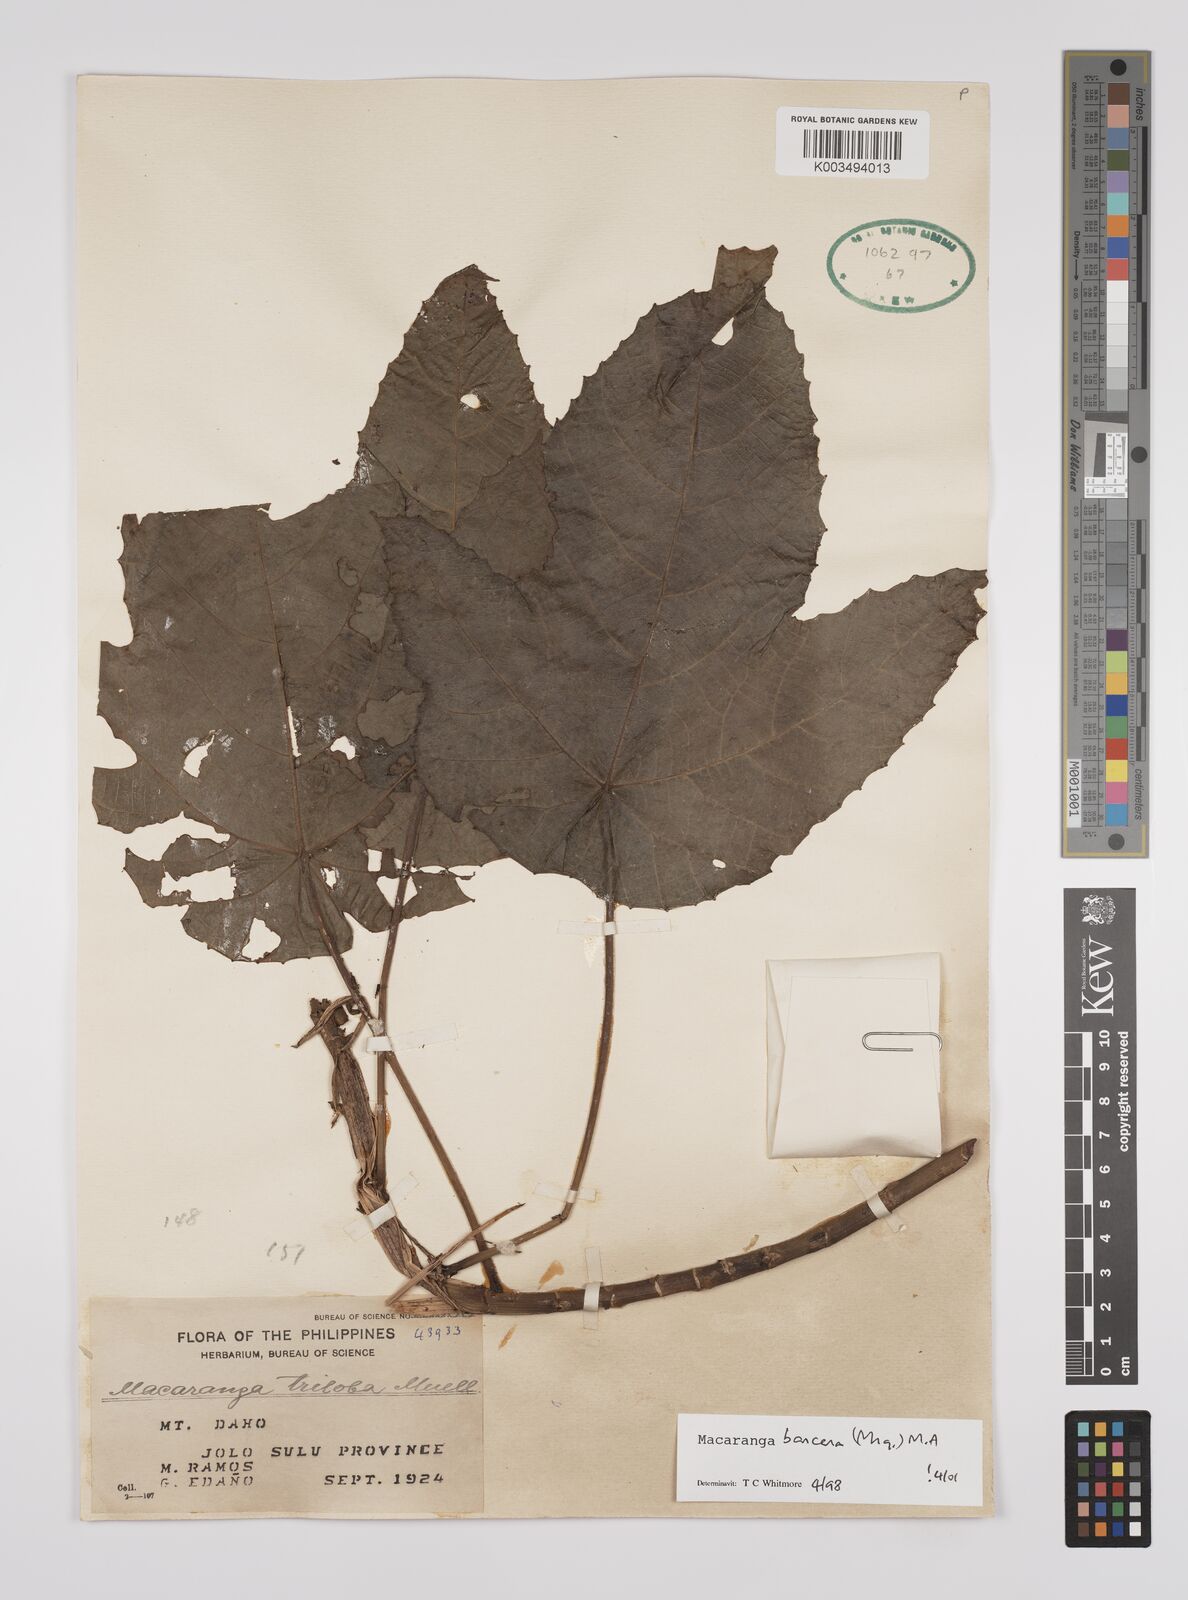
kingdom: Plantae
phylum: Tracheophyta
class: Magnoliopsida
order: Malpighiales
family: Euphorbiaceae
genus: Macaranga
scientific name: Macaranga bancana
